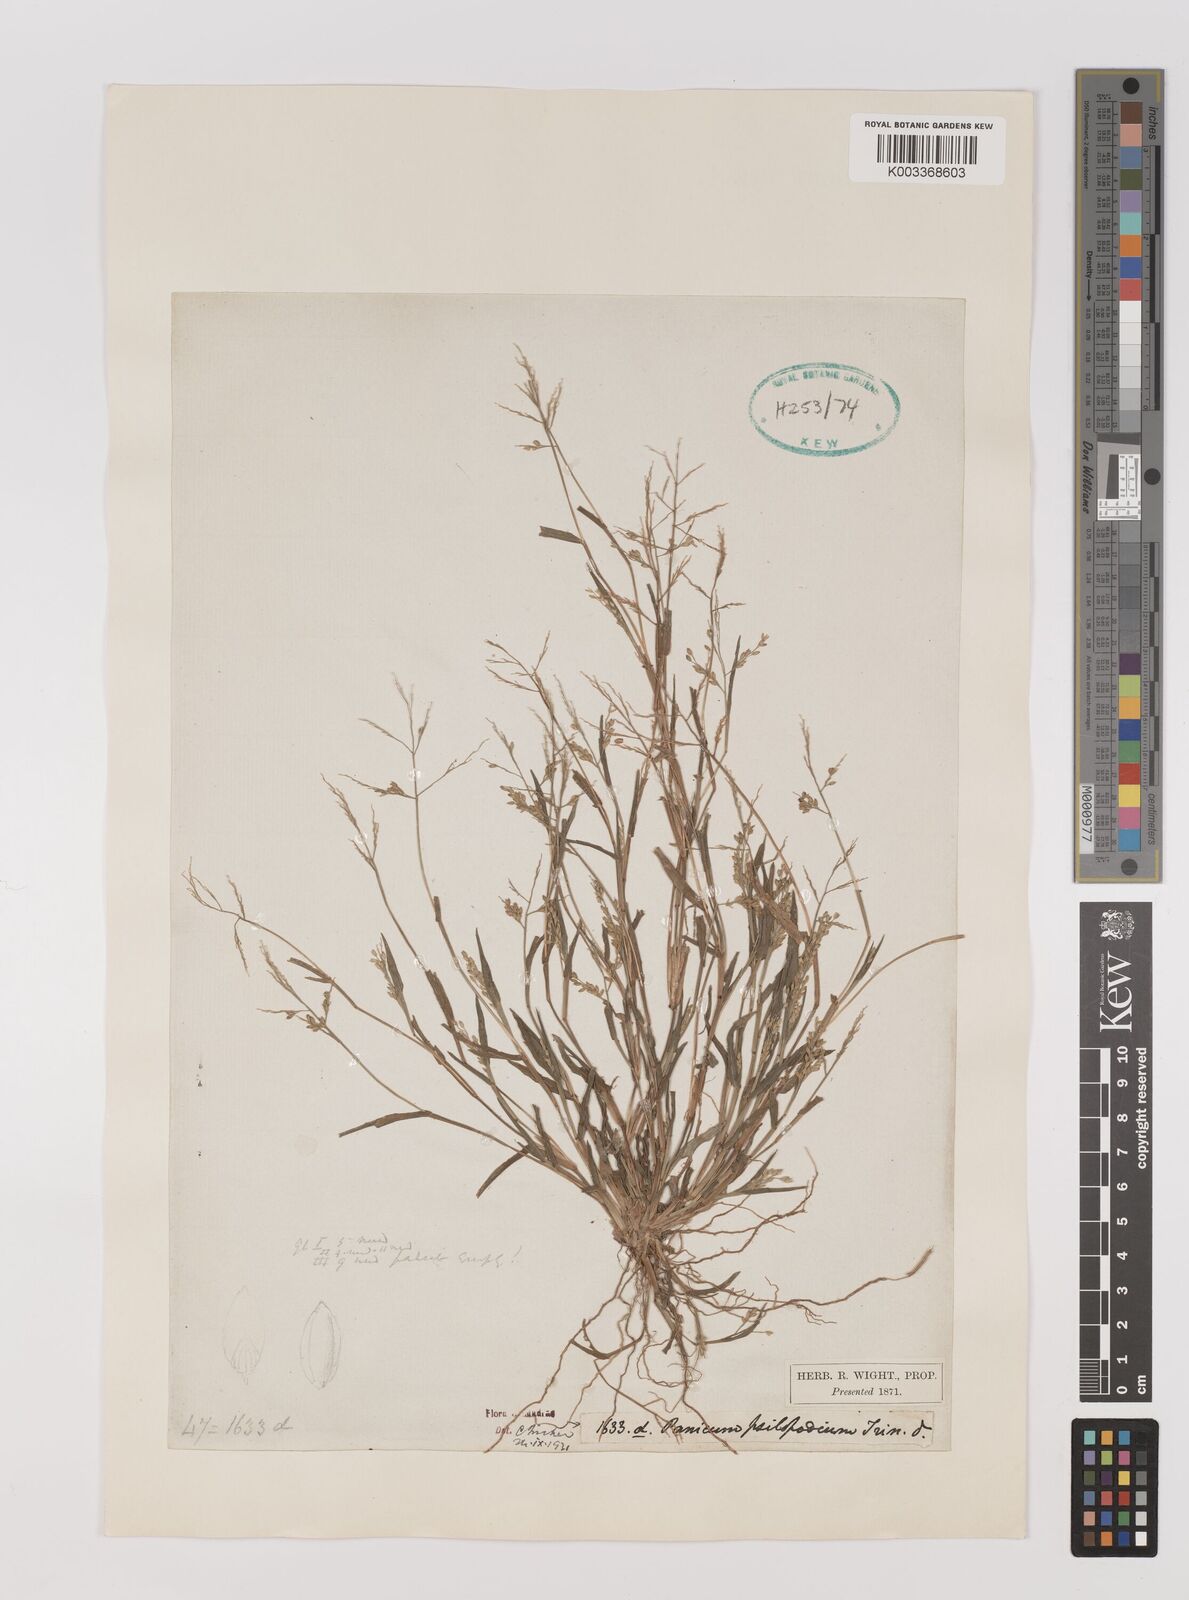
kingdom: Plantae
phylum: Tracheophyta
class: Liliopsida
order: Poales
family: Poaceae
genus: Panicum
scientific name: Panicum sumatrense
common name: Little millet
